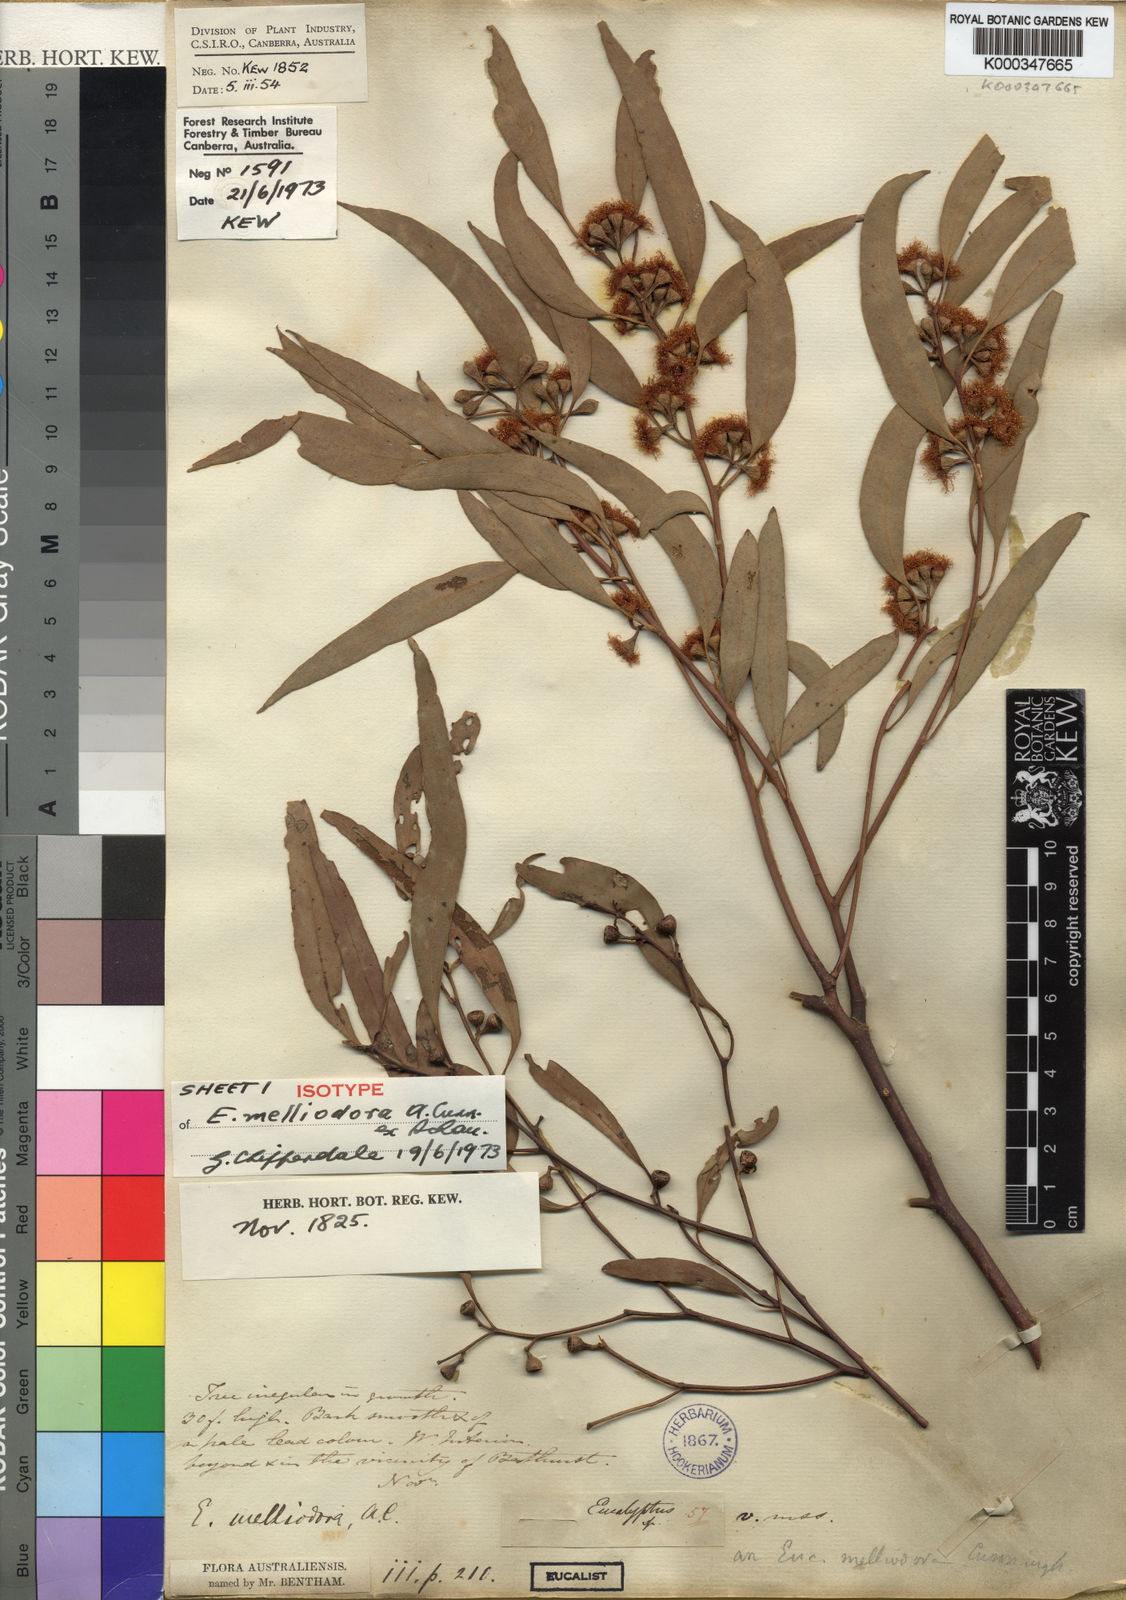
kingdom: Plantae
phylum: Tracheophyta
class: Magnoliopsida
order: Myrtales
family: Myrtaceae
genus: Eucalyptus
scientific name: Eucalyptus melliodora
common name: Yellow ironbox
